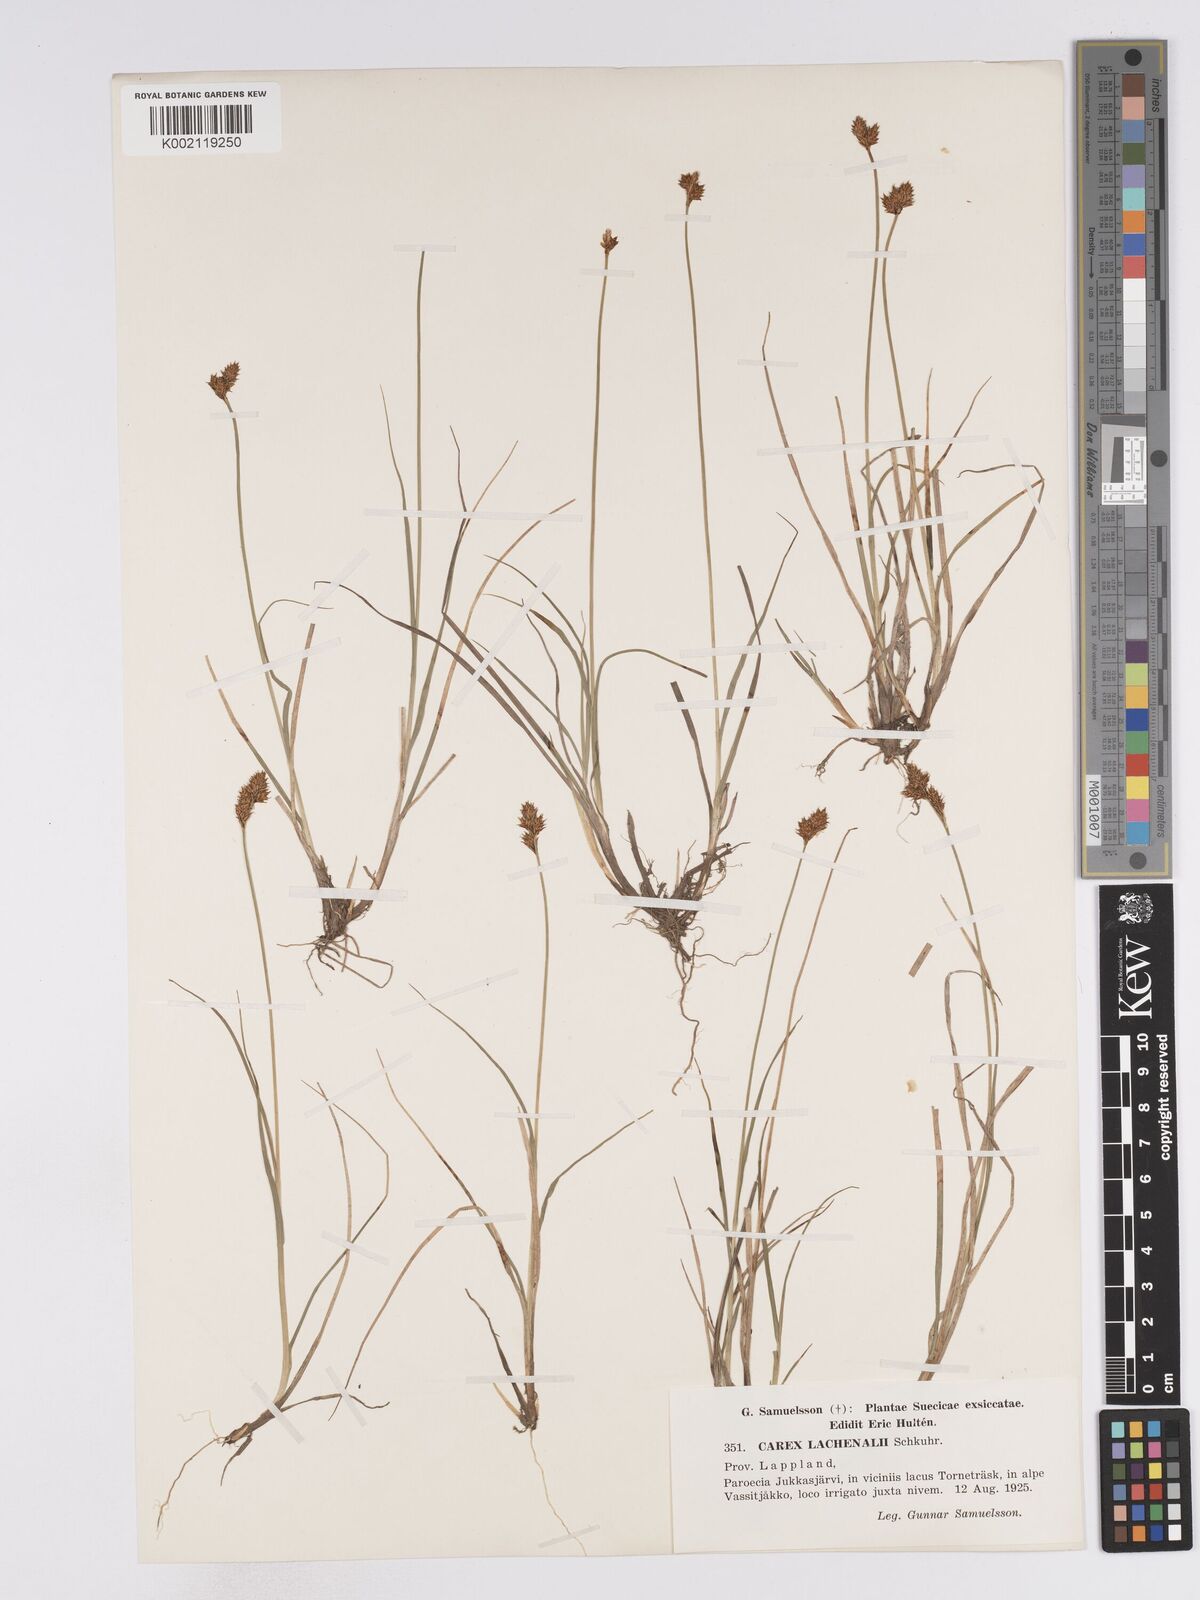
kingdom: Plantae
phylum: Tracheophyta
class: Liliopsida
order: Poales
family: Cyperaceae
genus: Carex
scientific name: Carex lachenalii
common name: Hare's-foot sedge
